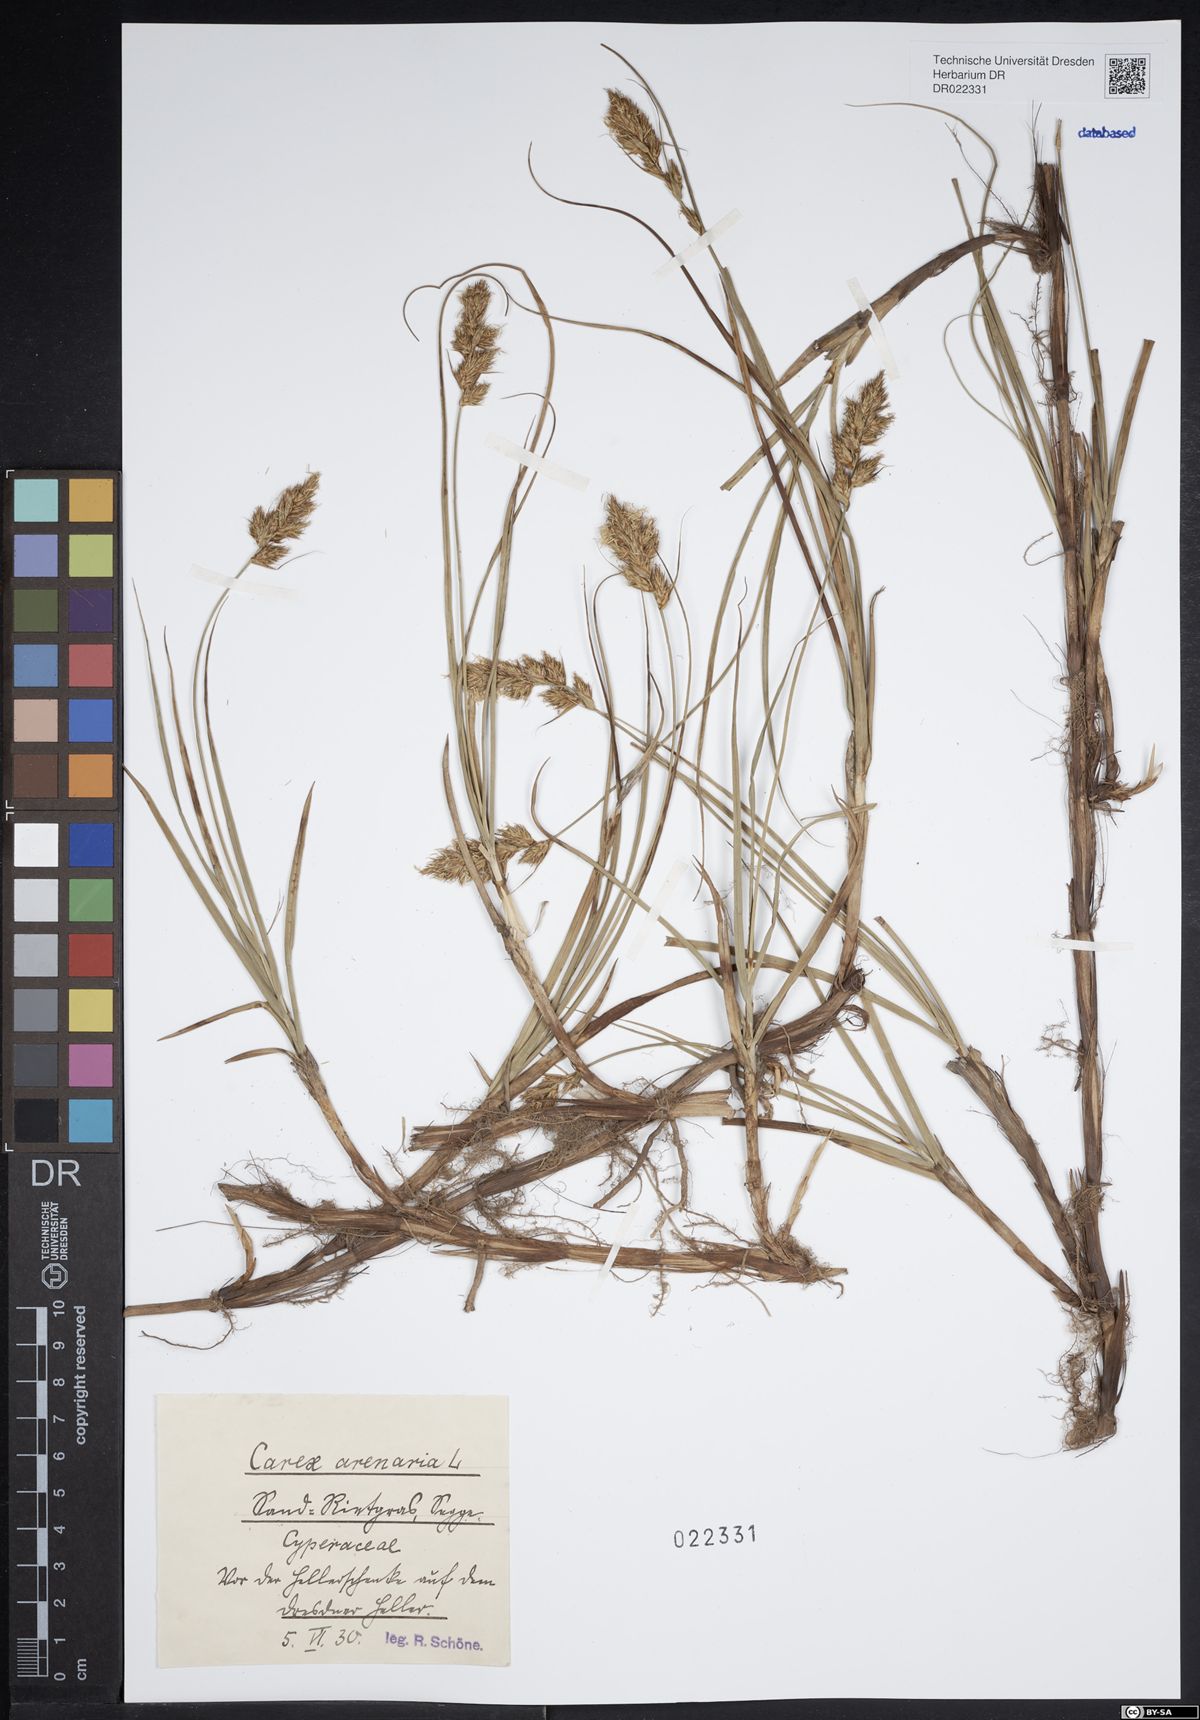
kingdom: Plantae
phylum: Tracheophyta
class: Liliopsida
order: Poales
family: Cyperaceae
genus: Carex
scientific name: Carex arenaria
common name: Sand sedge
